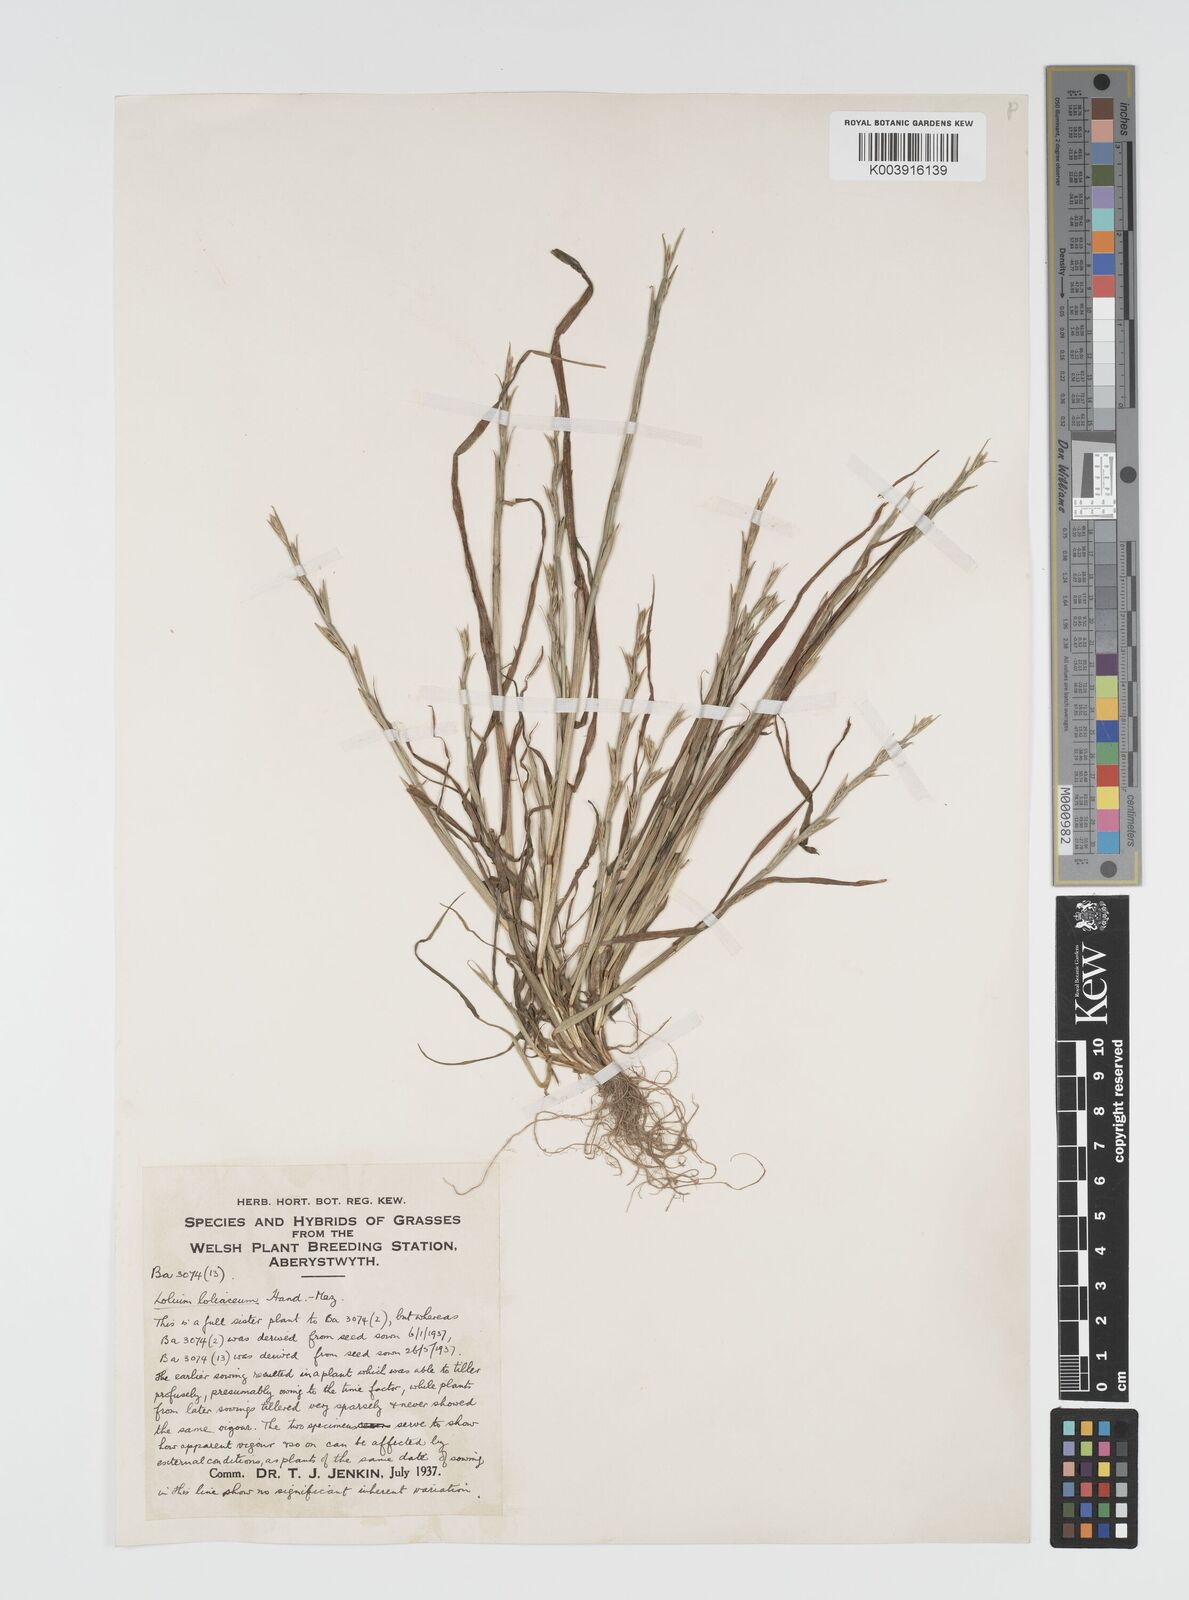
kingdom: Plantae
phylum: Tracheophyta
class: Liliopsida
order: Poales
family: Poaceae
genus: Lolium
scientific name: Lolium rigidum
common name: Wimmera ryegrass
